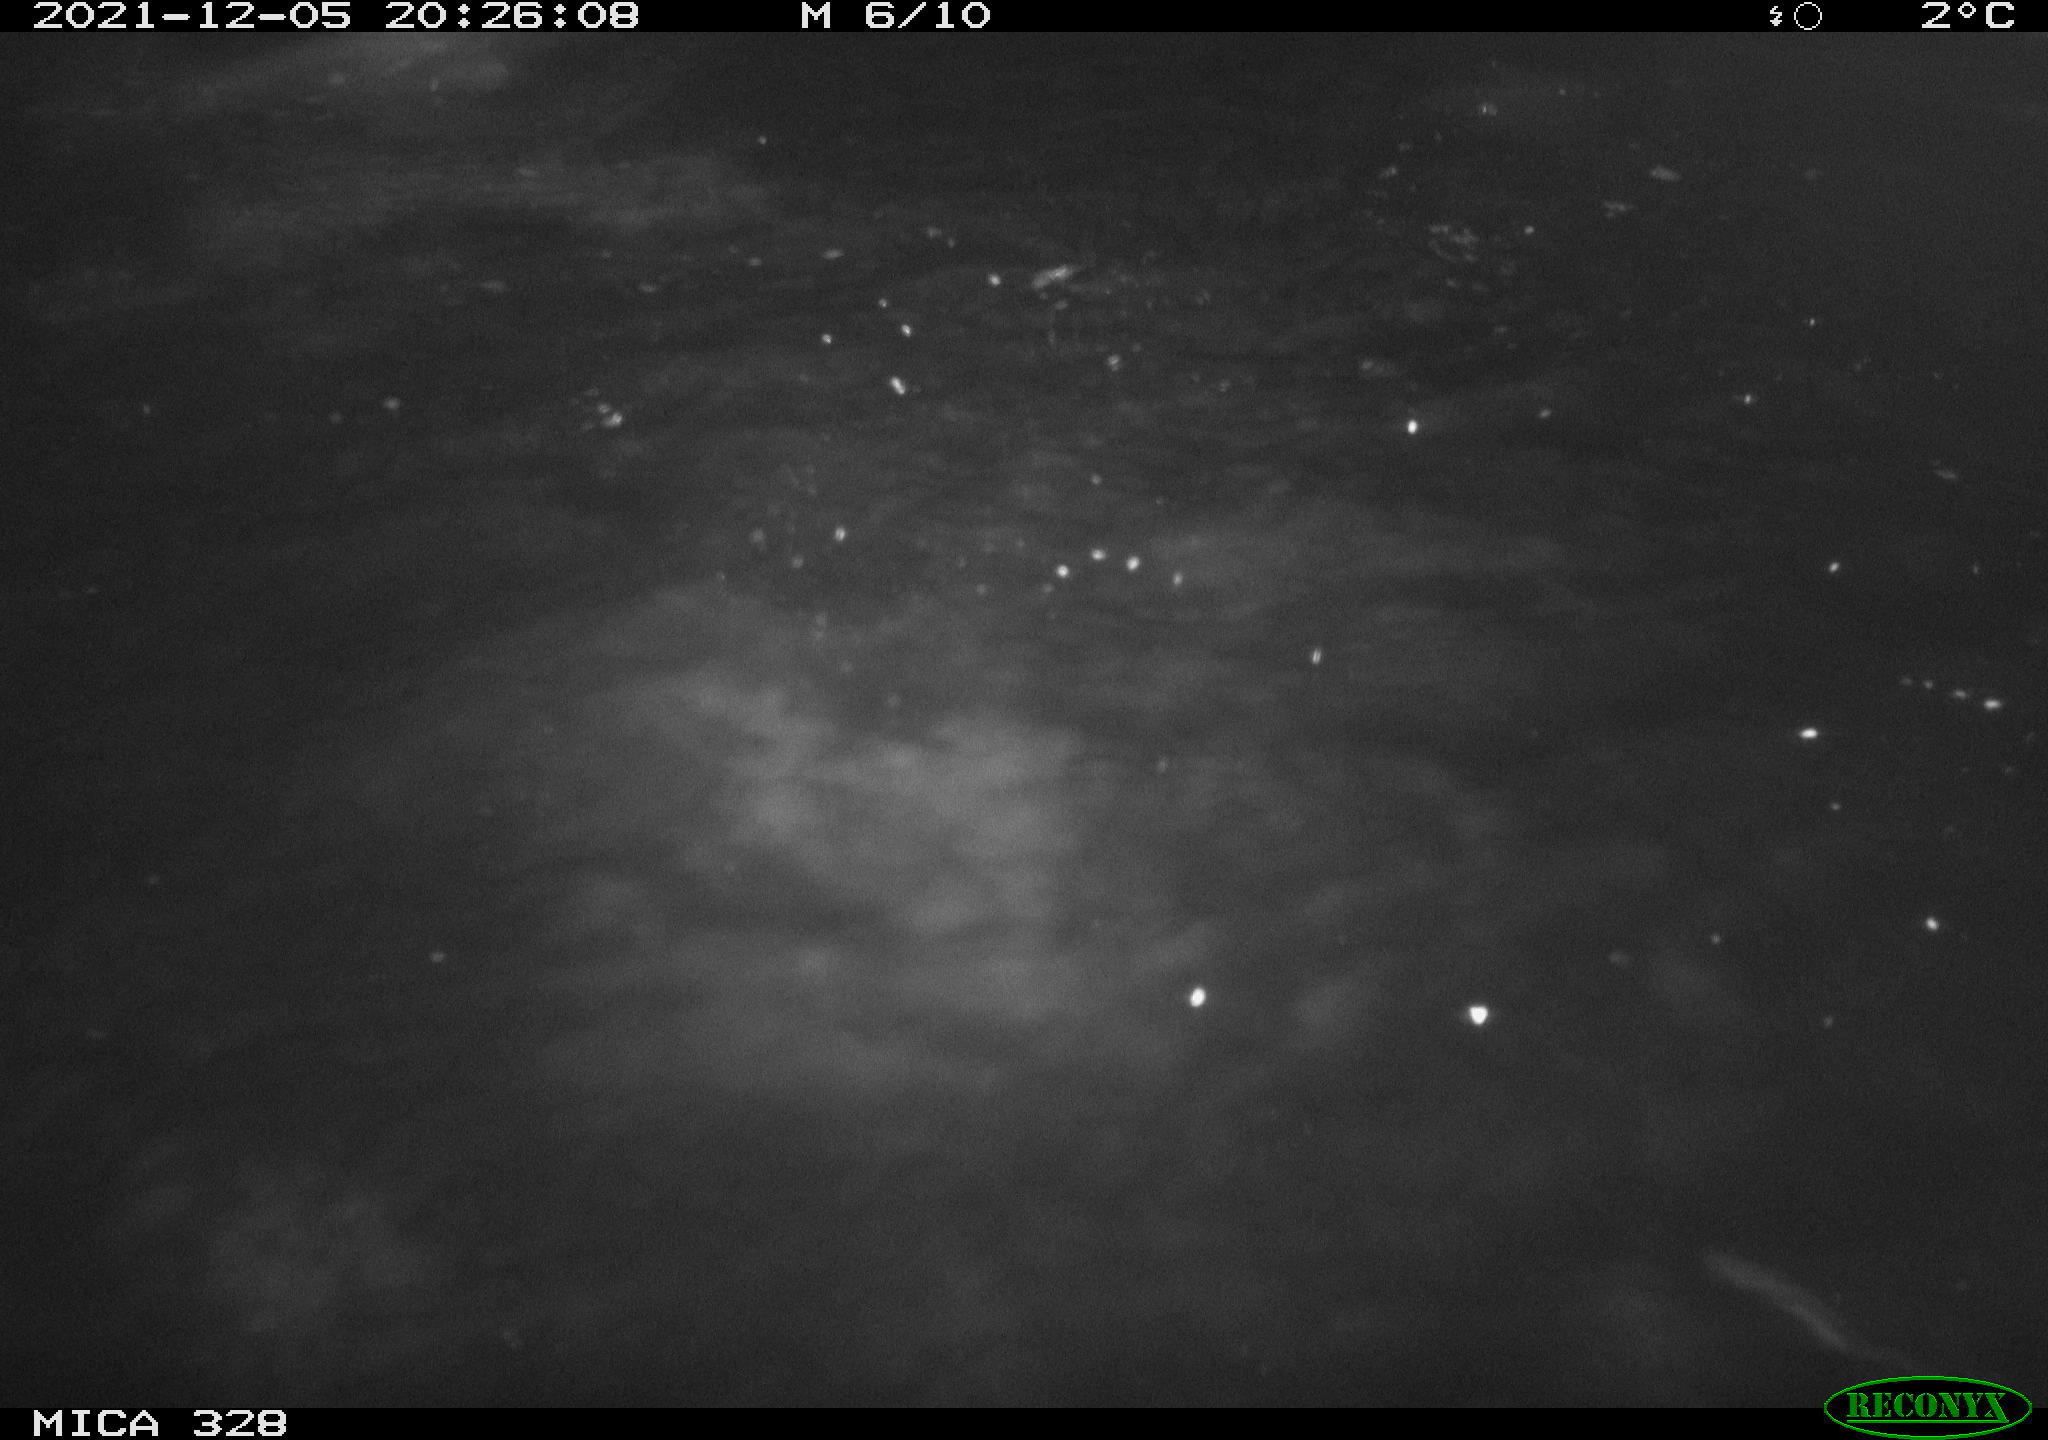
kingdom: Animalia
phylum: Chordata
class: Aves
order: Anseriformes
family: Anatidae
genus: Anas
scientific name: Anas platyrhynchos
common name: Mallard
